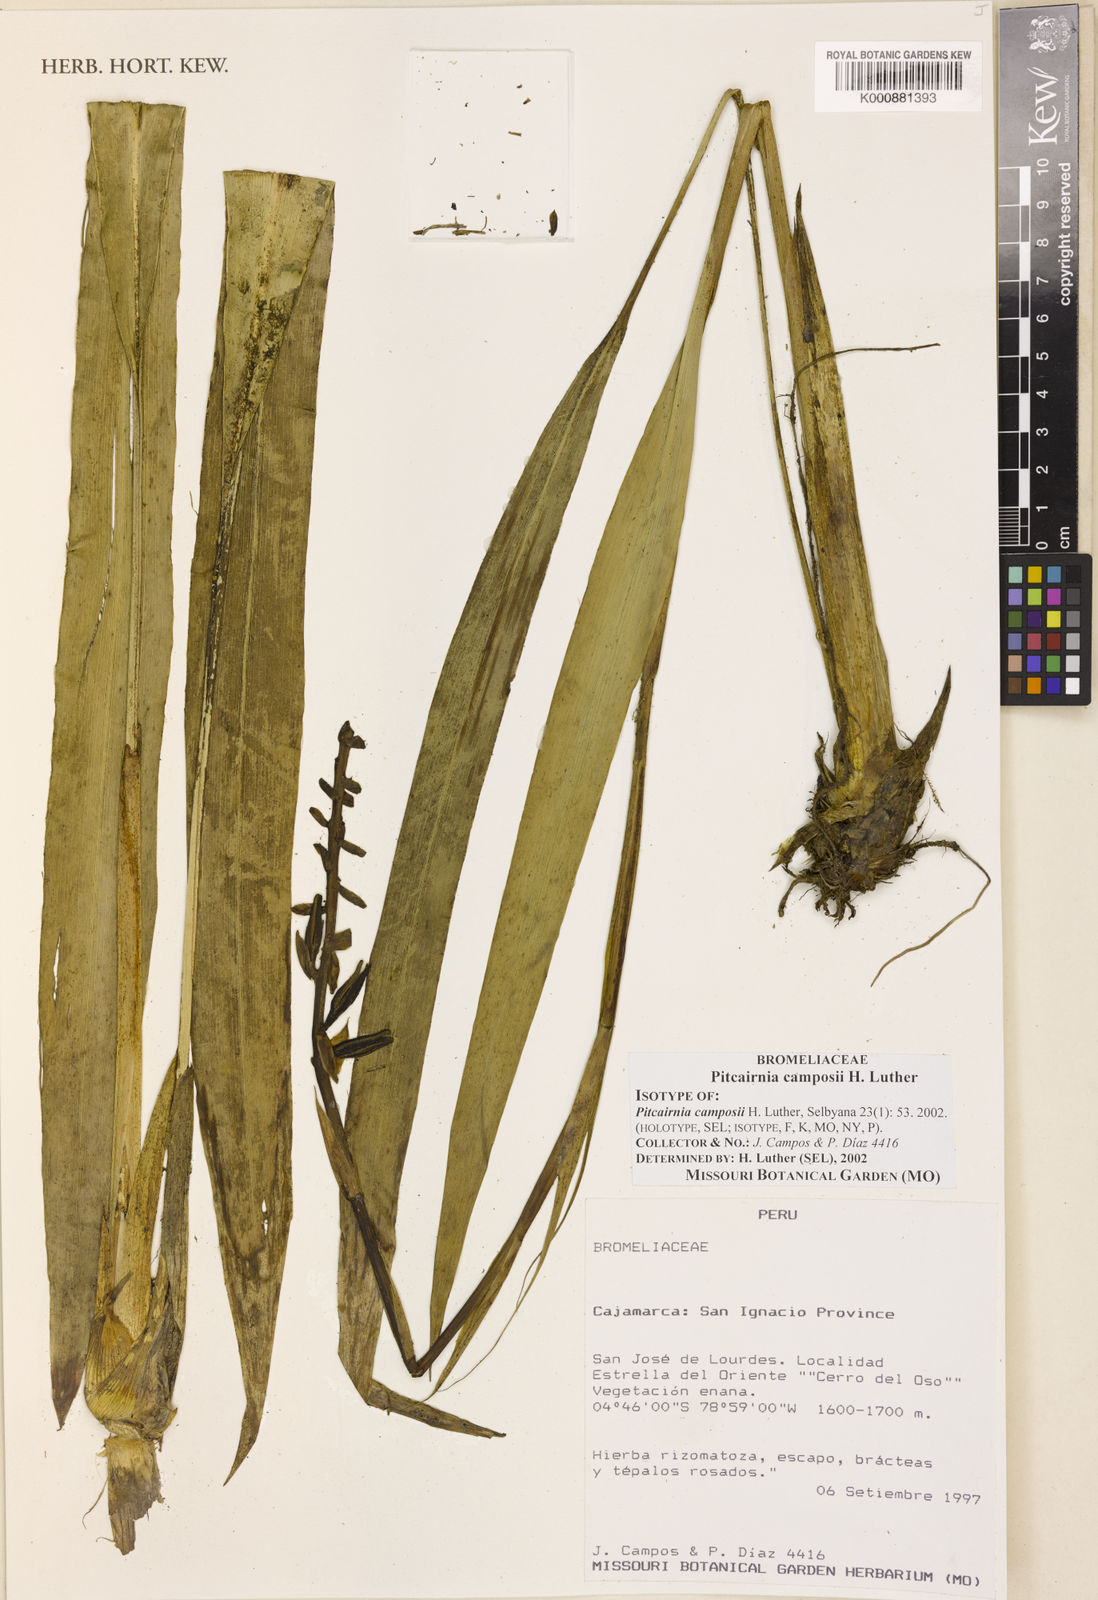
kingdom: Plantae
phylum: Tracheophyta
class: Liliopsida
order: Poales
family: Bromeliaceae
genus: Pitcairnia
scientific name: Pitcairnia camposii
